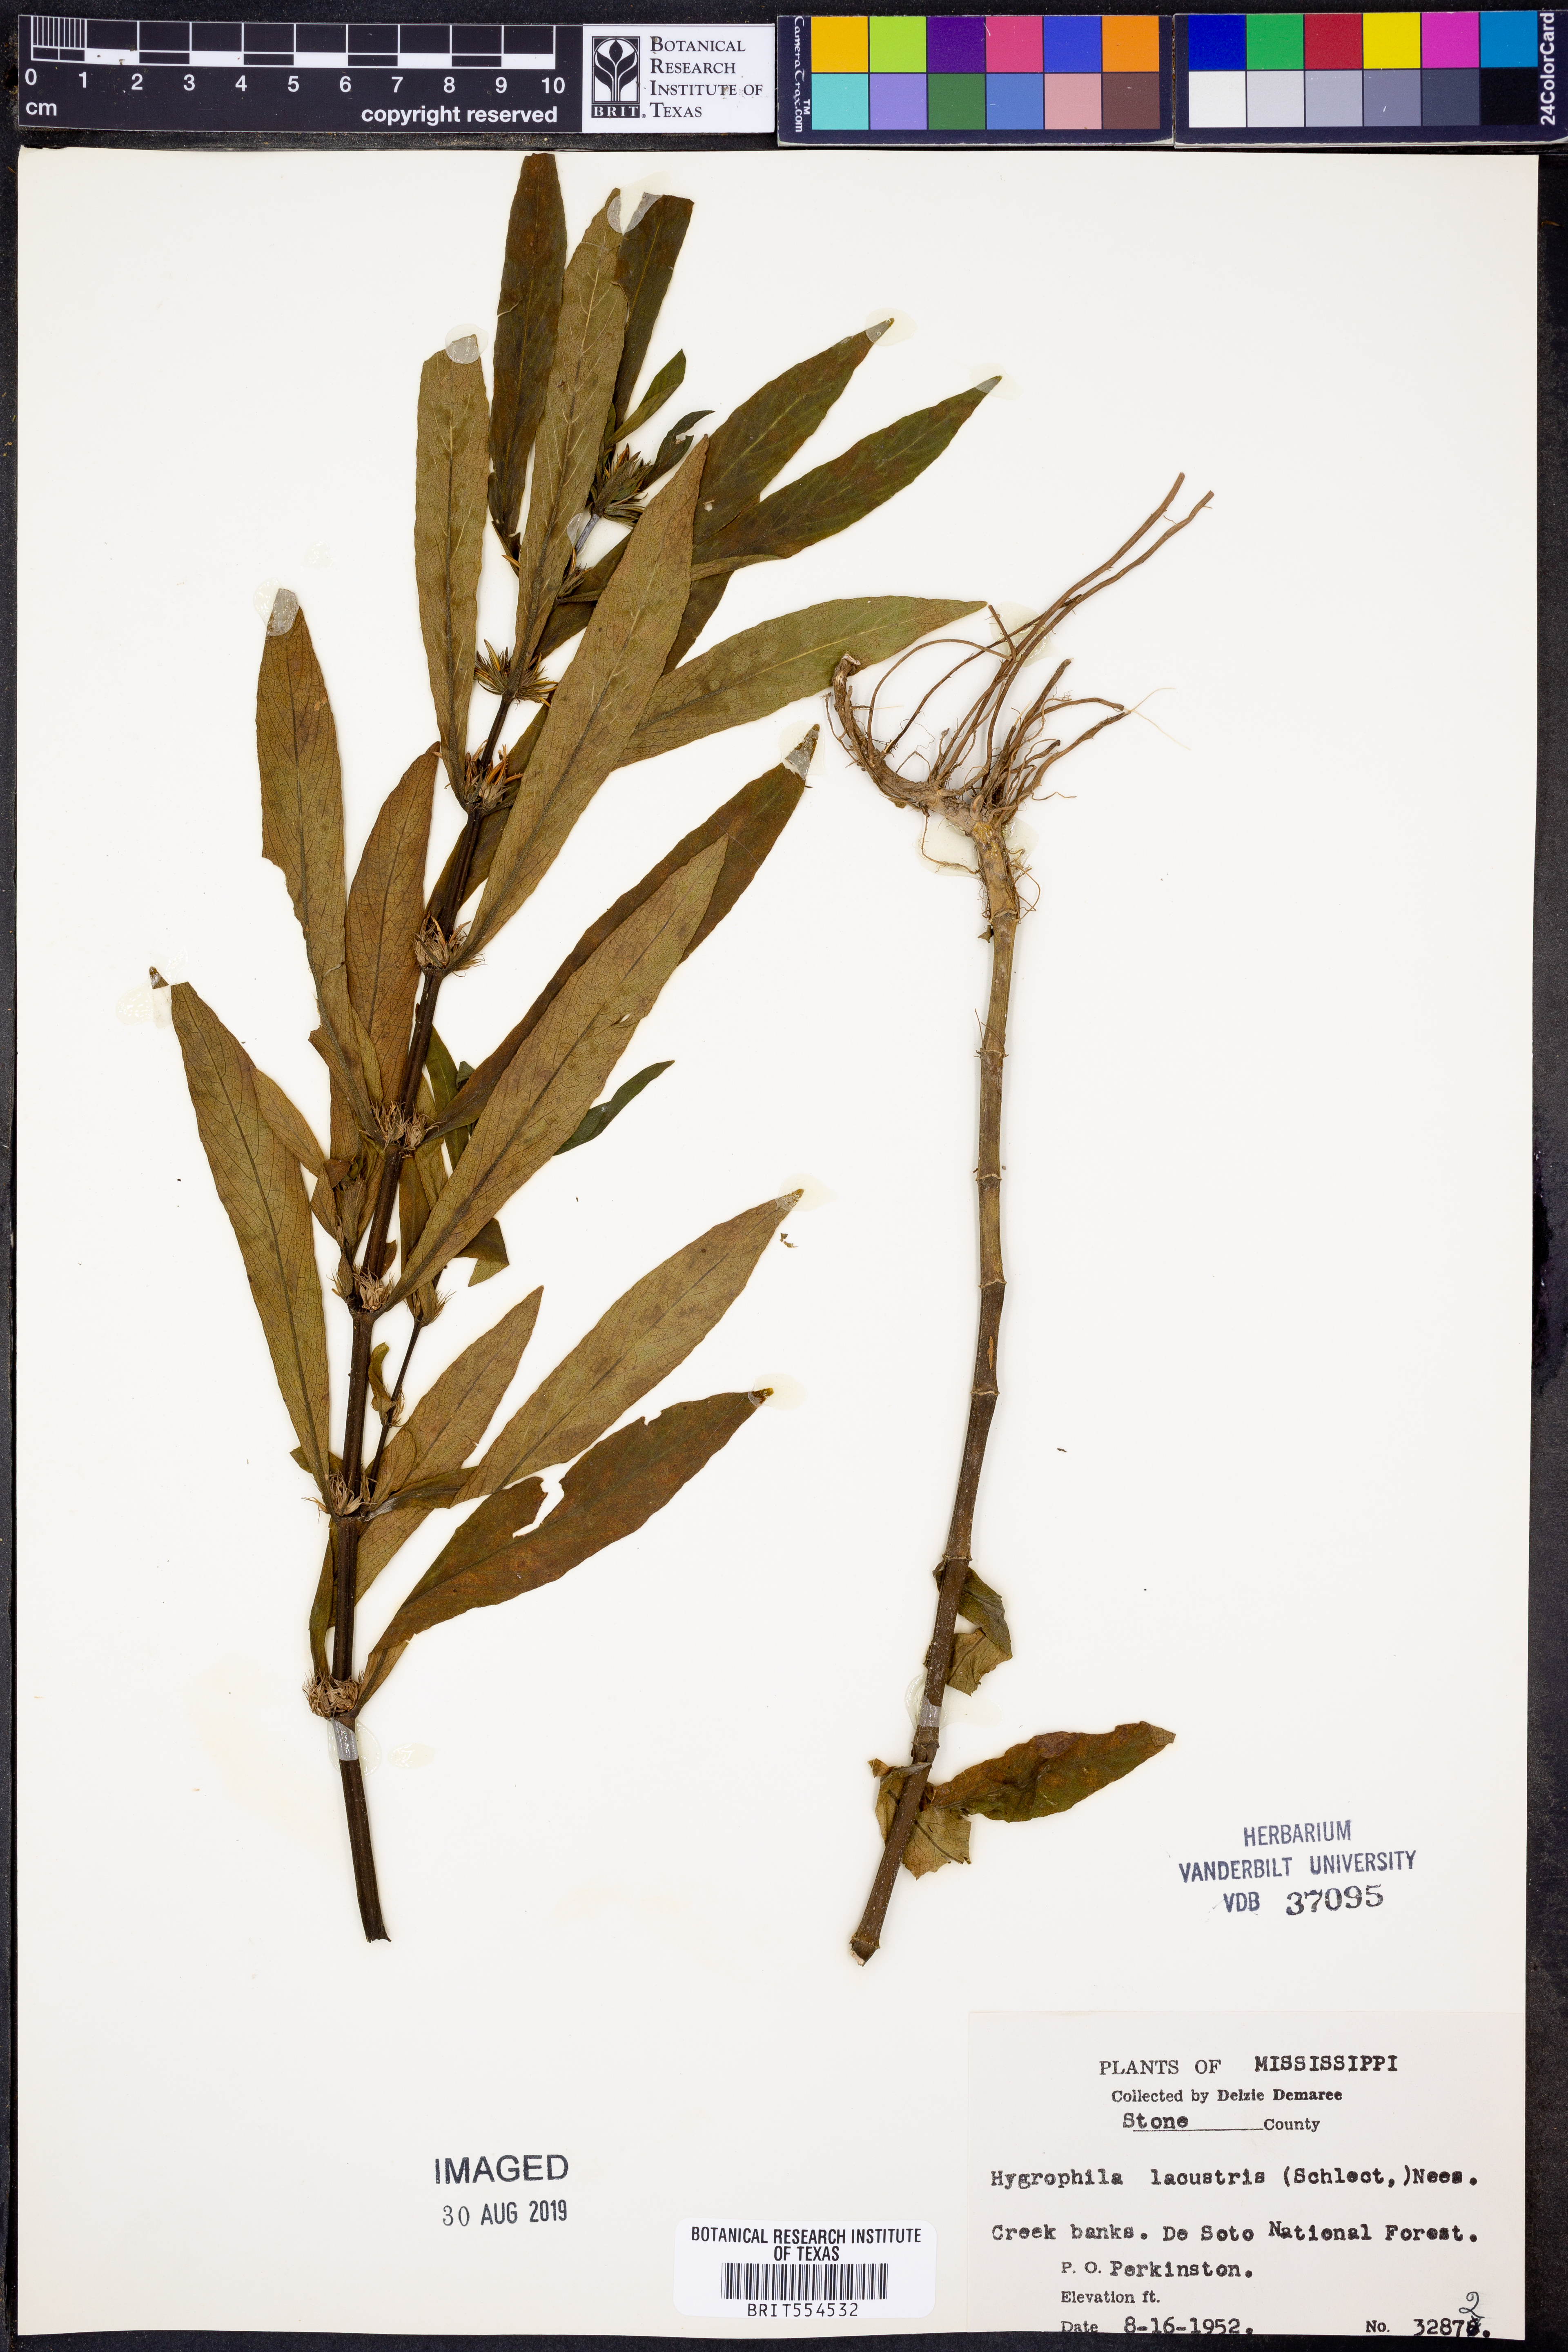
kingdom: Plantae
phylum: Tracheophyta
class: Magnoliopsida
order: Lamiales
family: Acanthaceae
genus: Hygrophila
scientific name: Hygrophila costata
